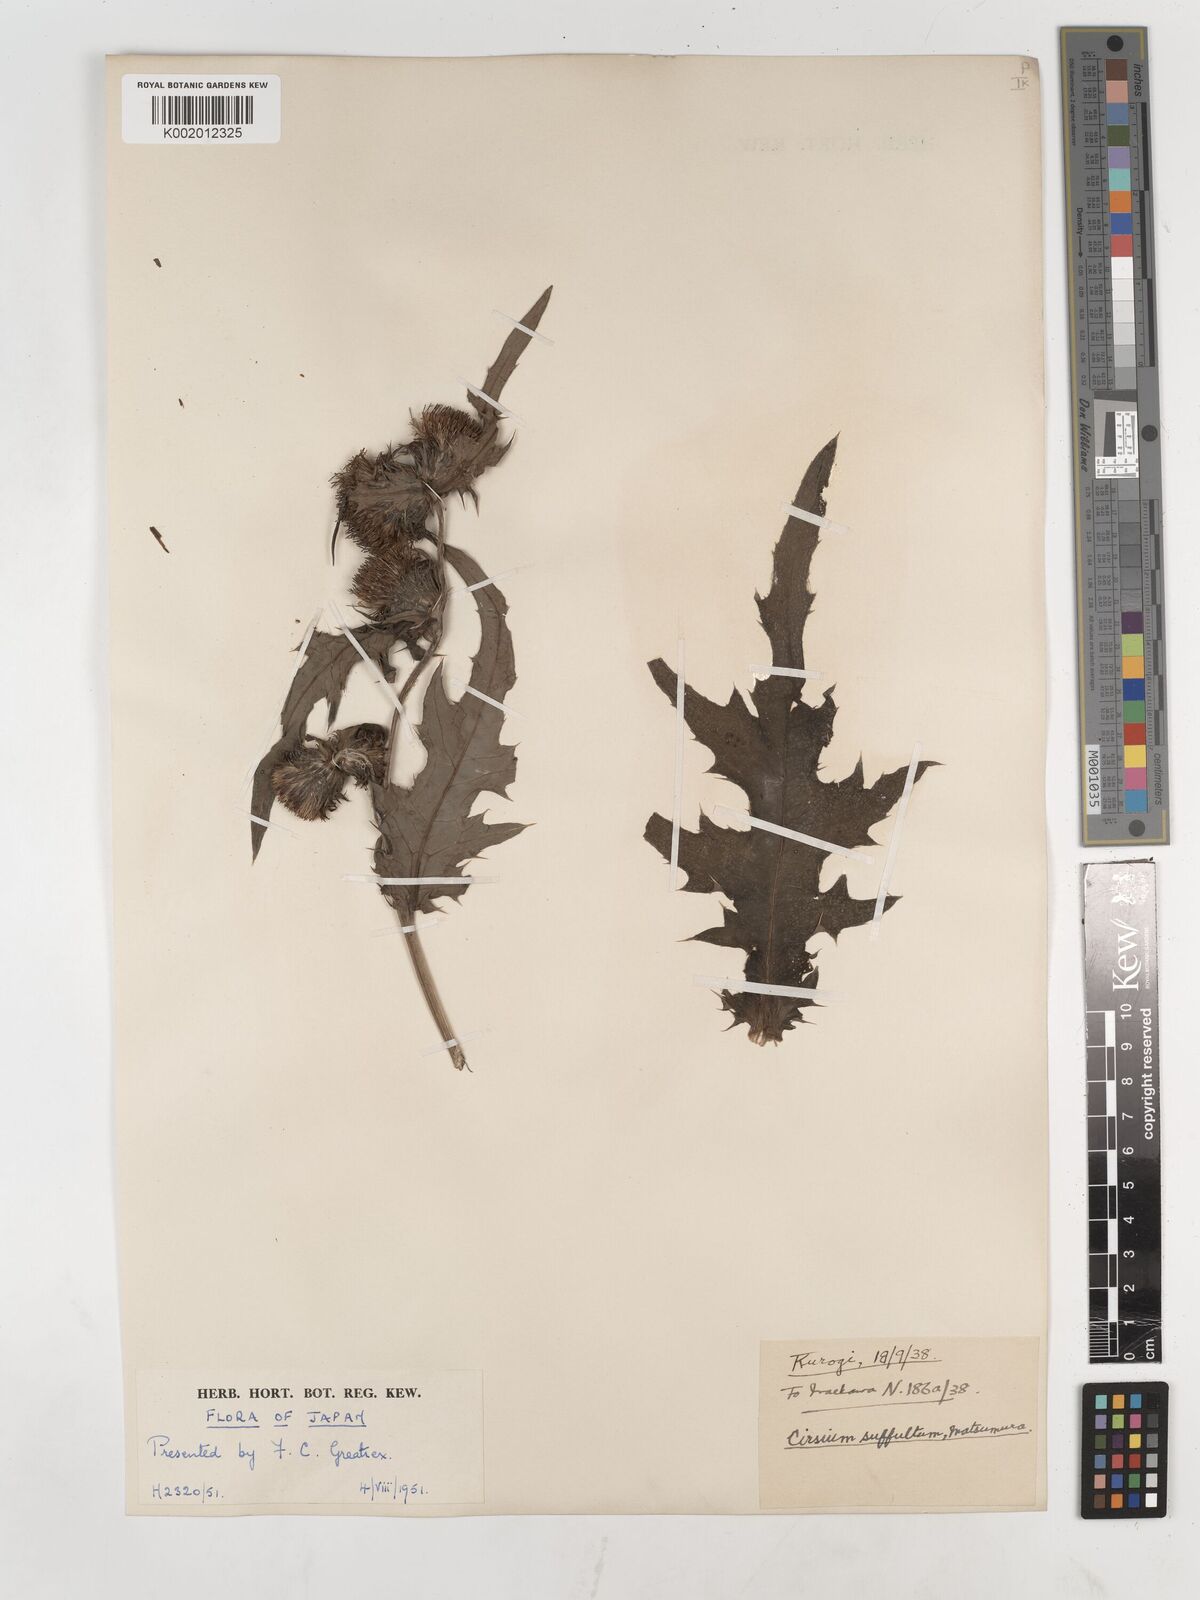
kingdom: Plantae
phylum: Tracheophyta
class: Magnoliopsida
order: Asterales
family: Asteraceae
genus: Cirsium
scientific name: Cirsium suffultum
